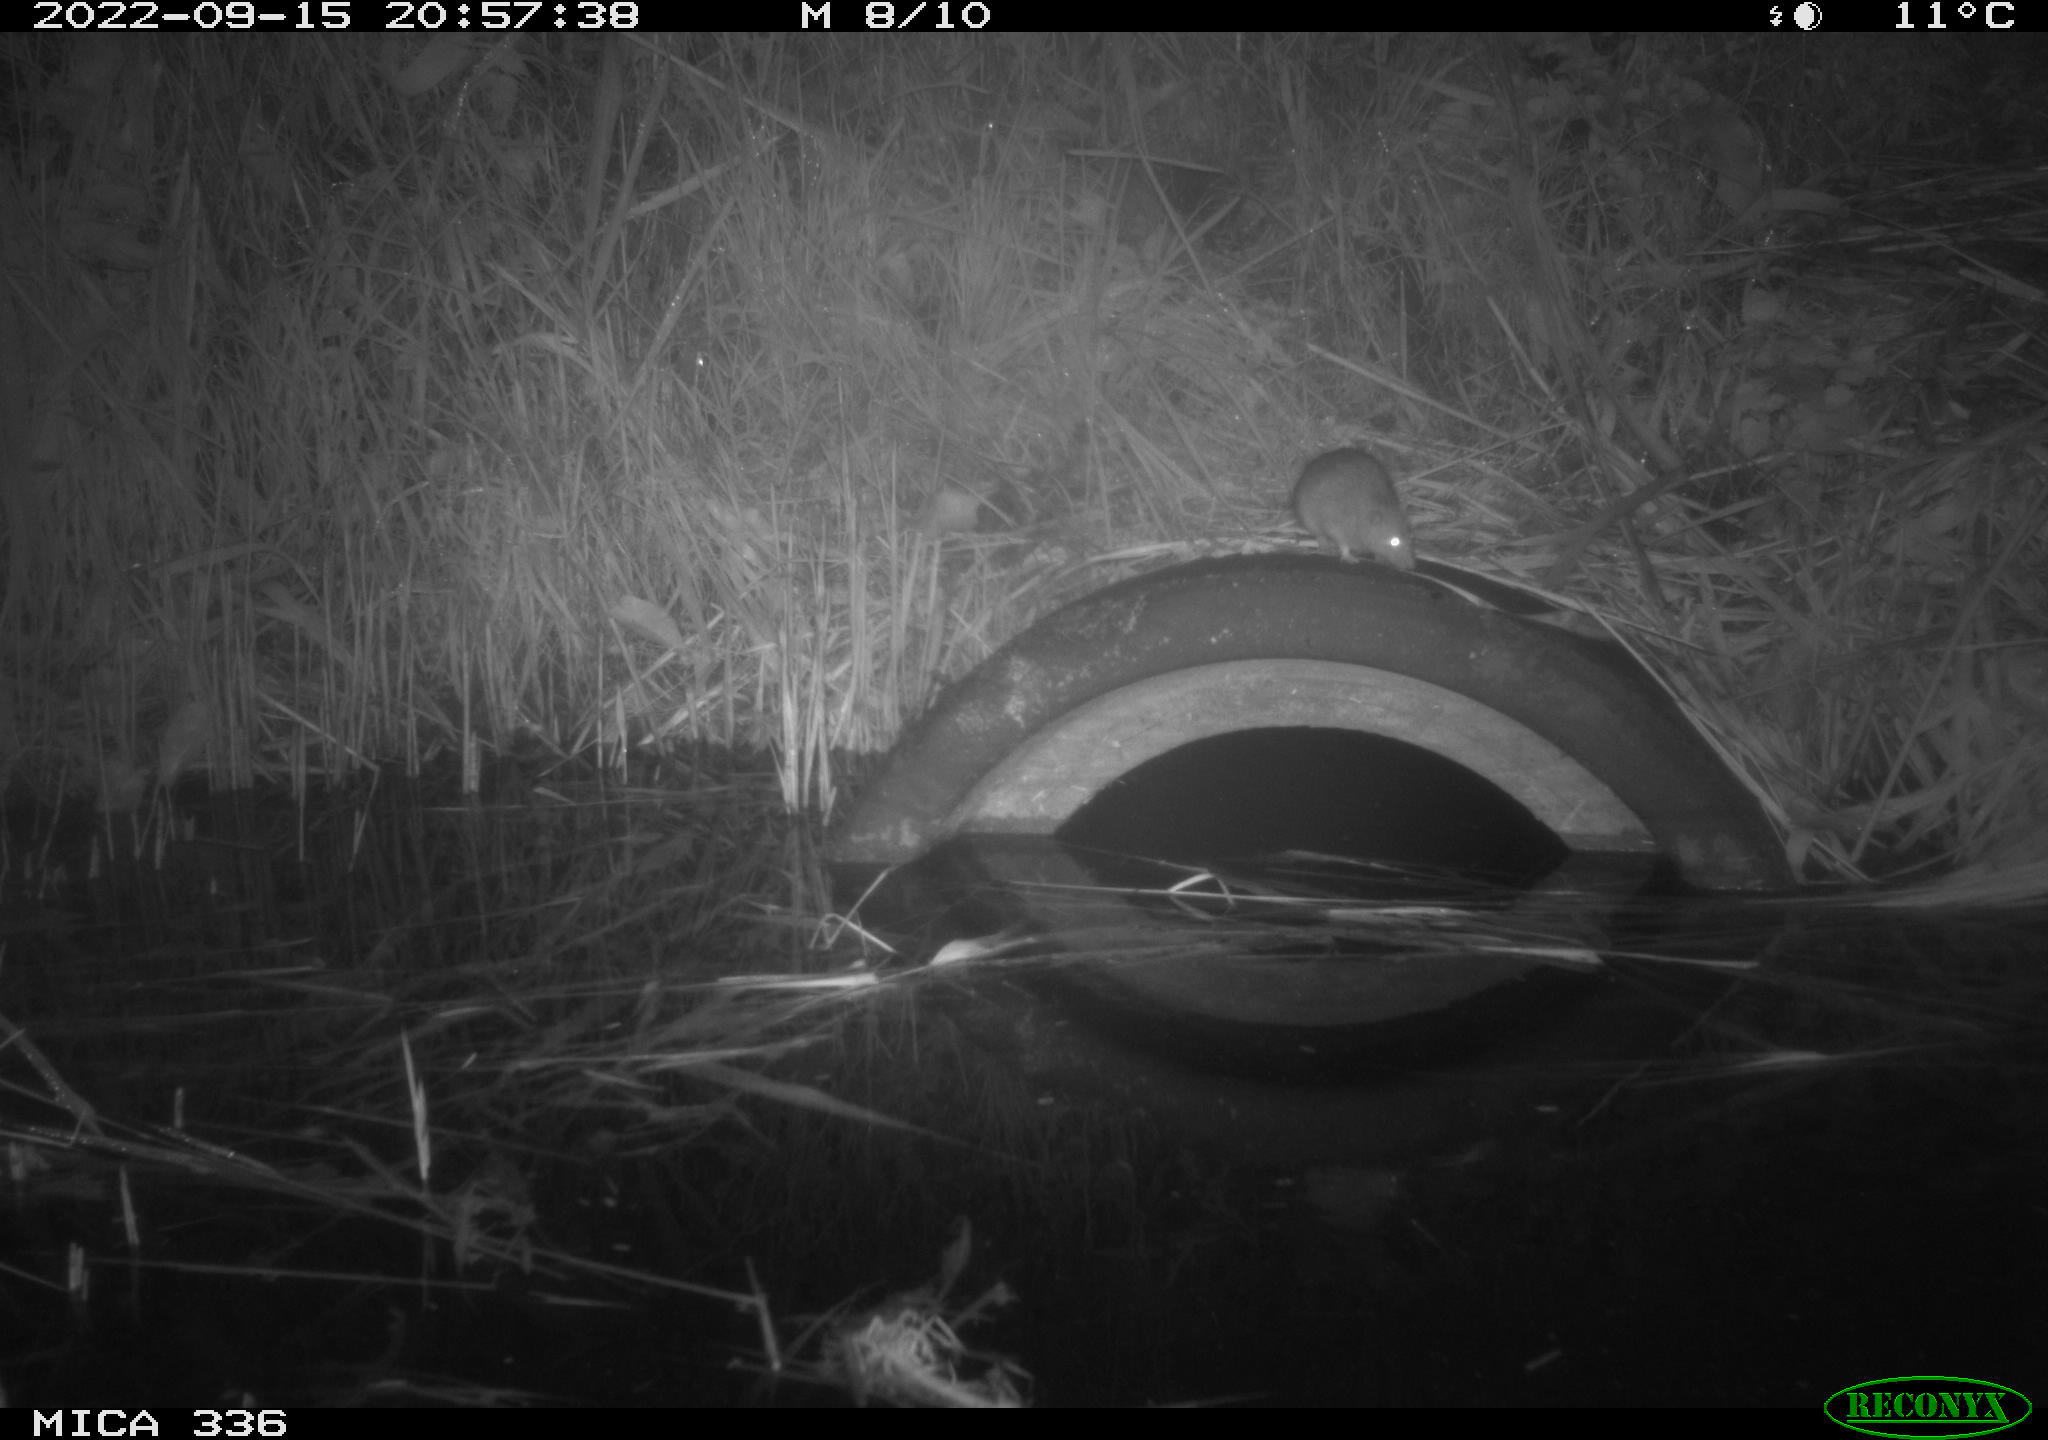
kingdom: Animalia
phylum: Chordata
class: Mammalia
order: Rodentia
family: Muridae
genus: Rattus
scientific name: Rattus norvegicus
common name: Brown rat
